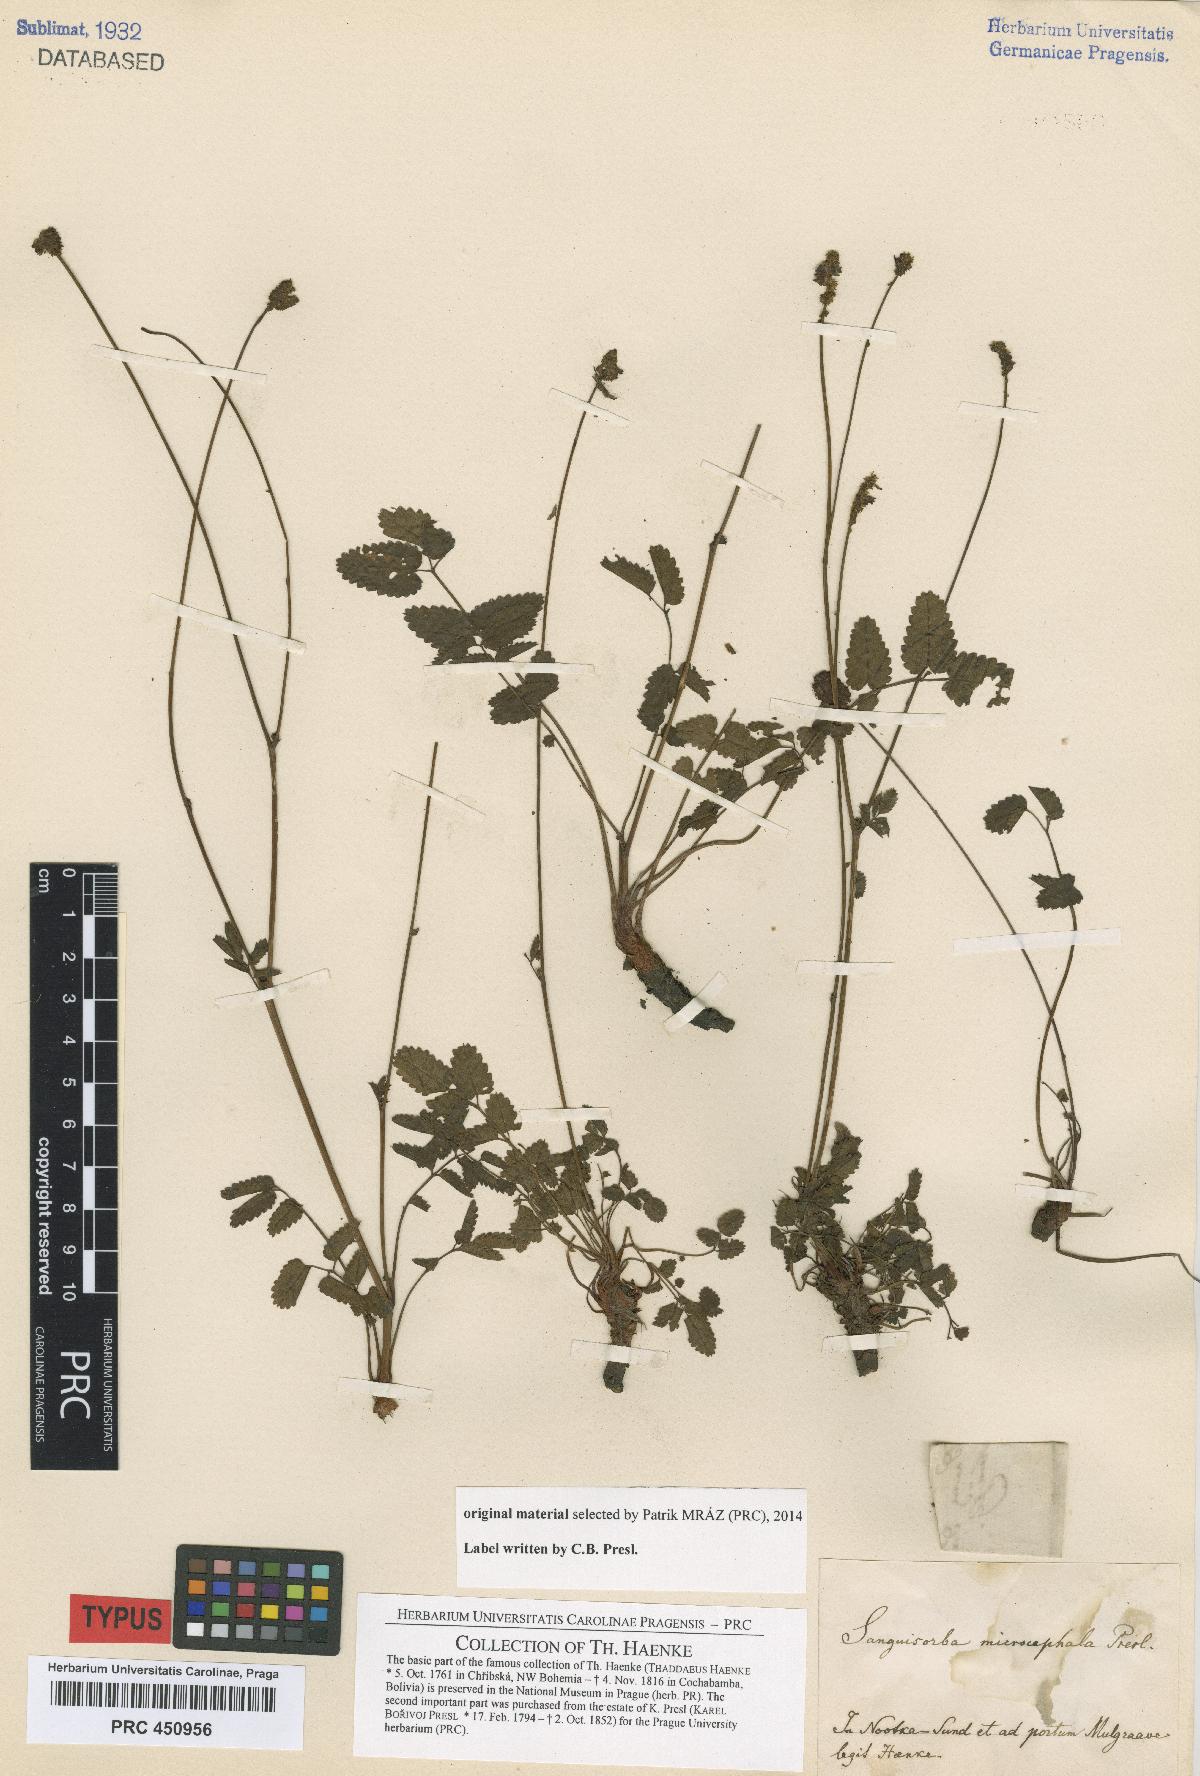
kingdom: Plantae
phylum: Tracheophyta
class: Magnoliopsida
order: Rosales
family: Rosaceae
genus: Sanguisorba
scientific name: Sanguisorba officinalis
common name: Great burnet
